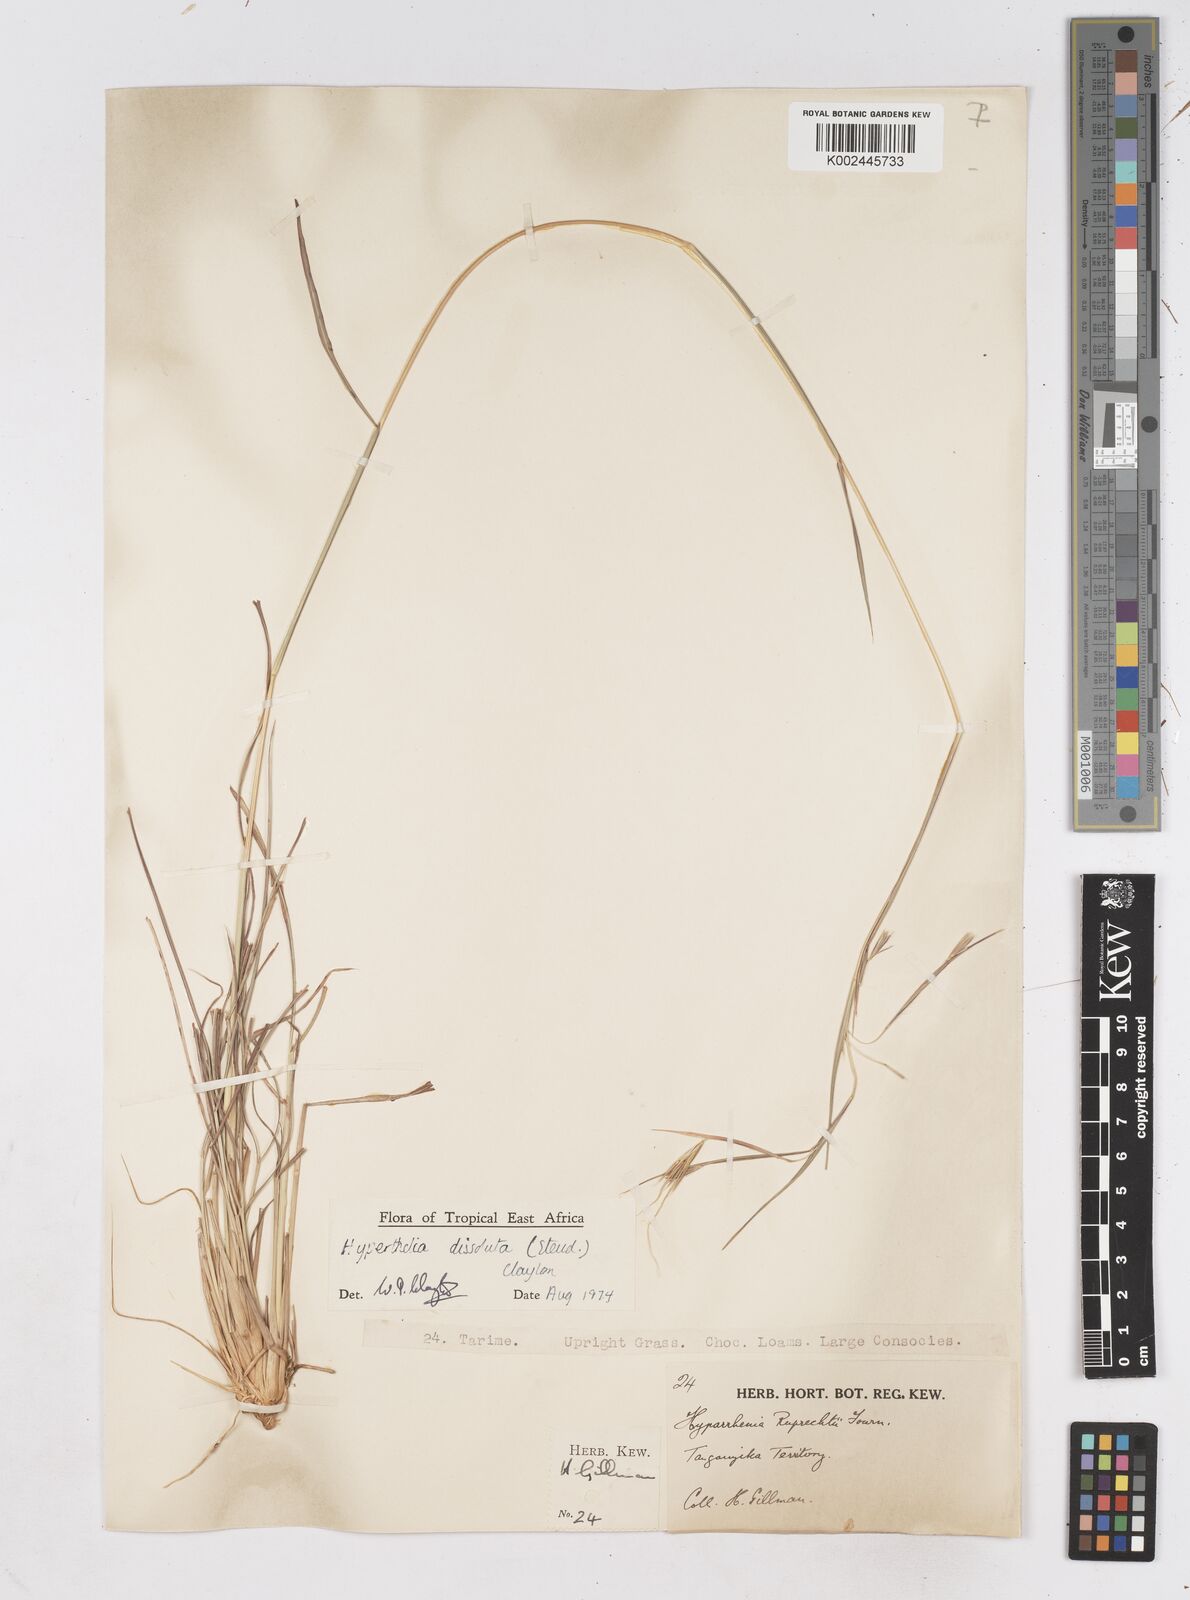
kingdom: Plantae
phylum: Tracheophyta
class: Liliopsida
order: Poales
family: Poaceae
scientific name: Poaceae
